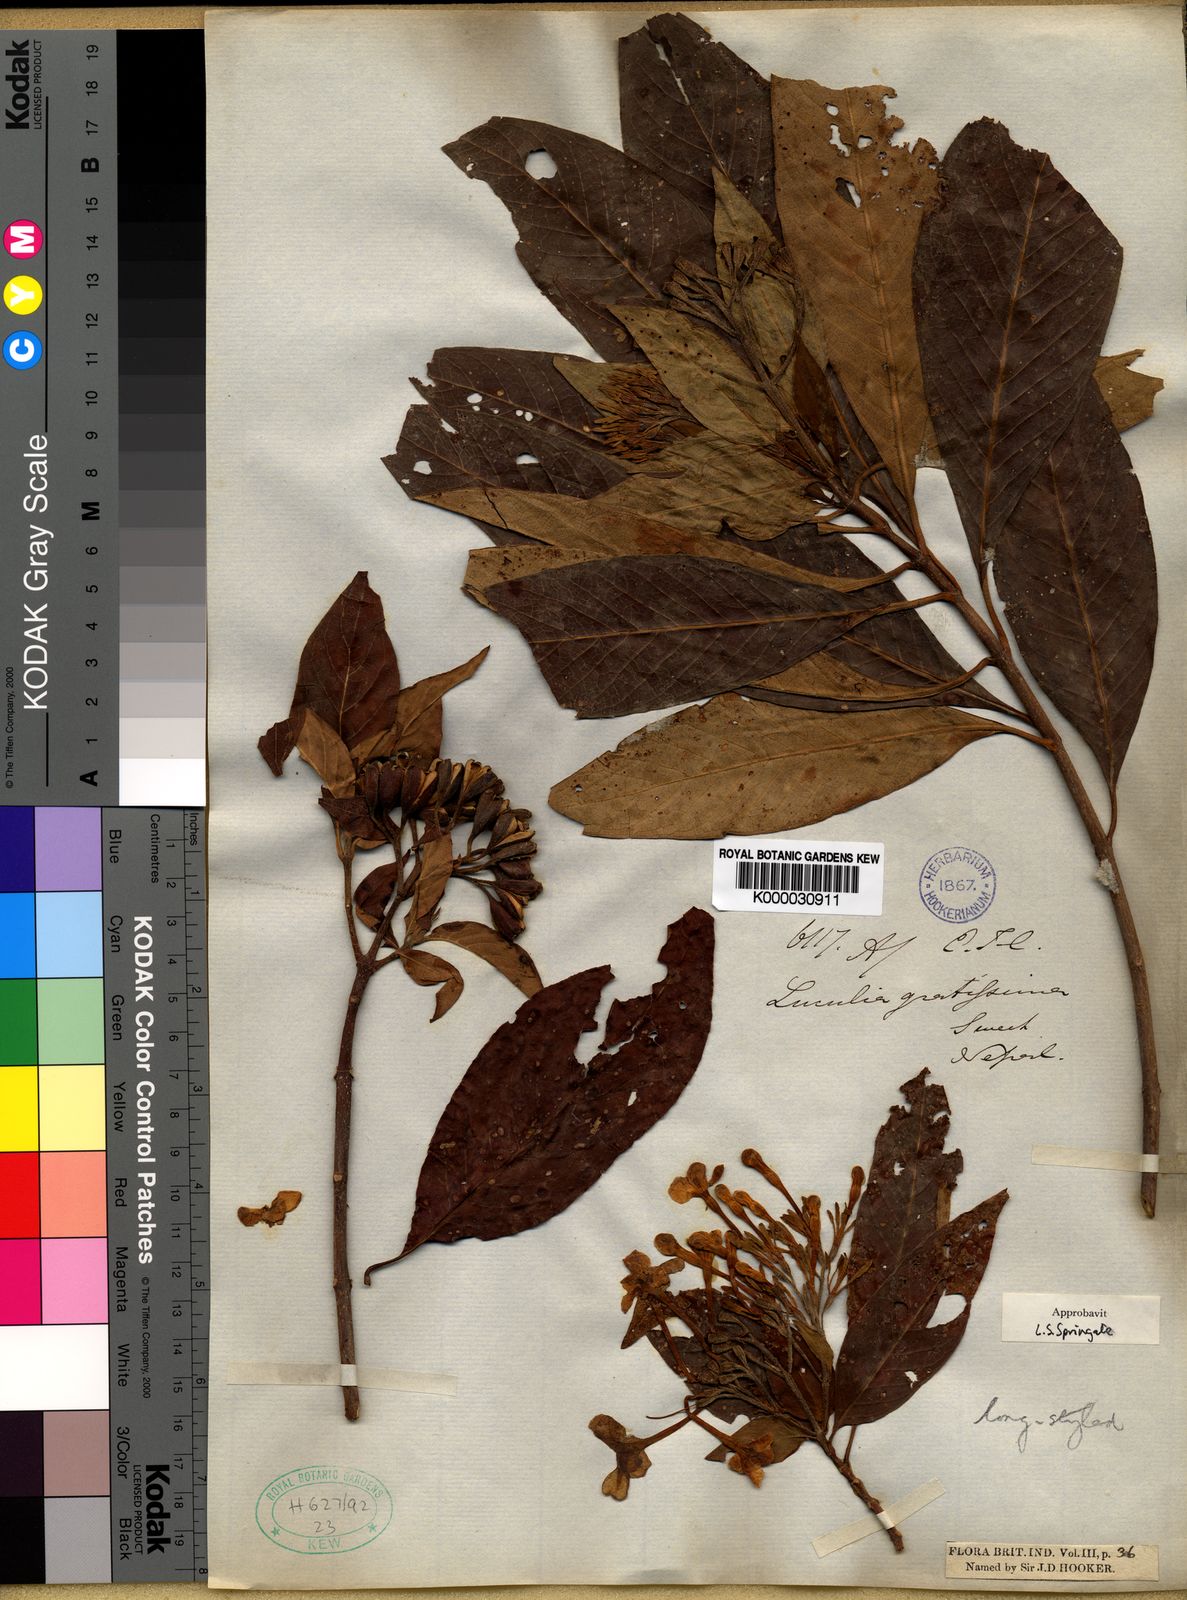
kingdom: Plantae
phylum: Tracheophyta
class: Magnoliopsida
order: Gentianales
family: Rubiaceae
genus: Luculia
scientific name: Luculia gratissima
